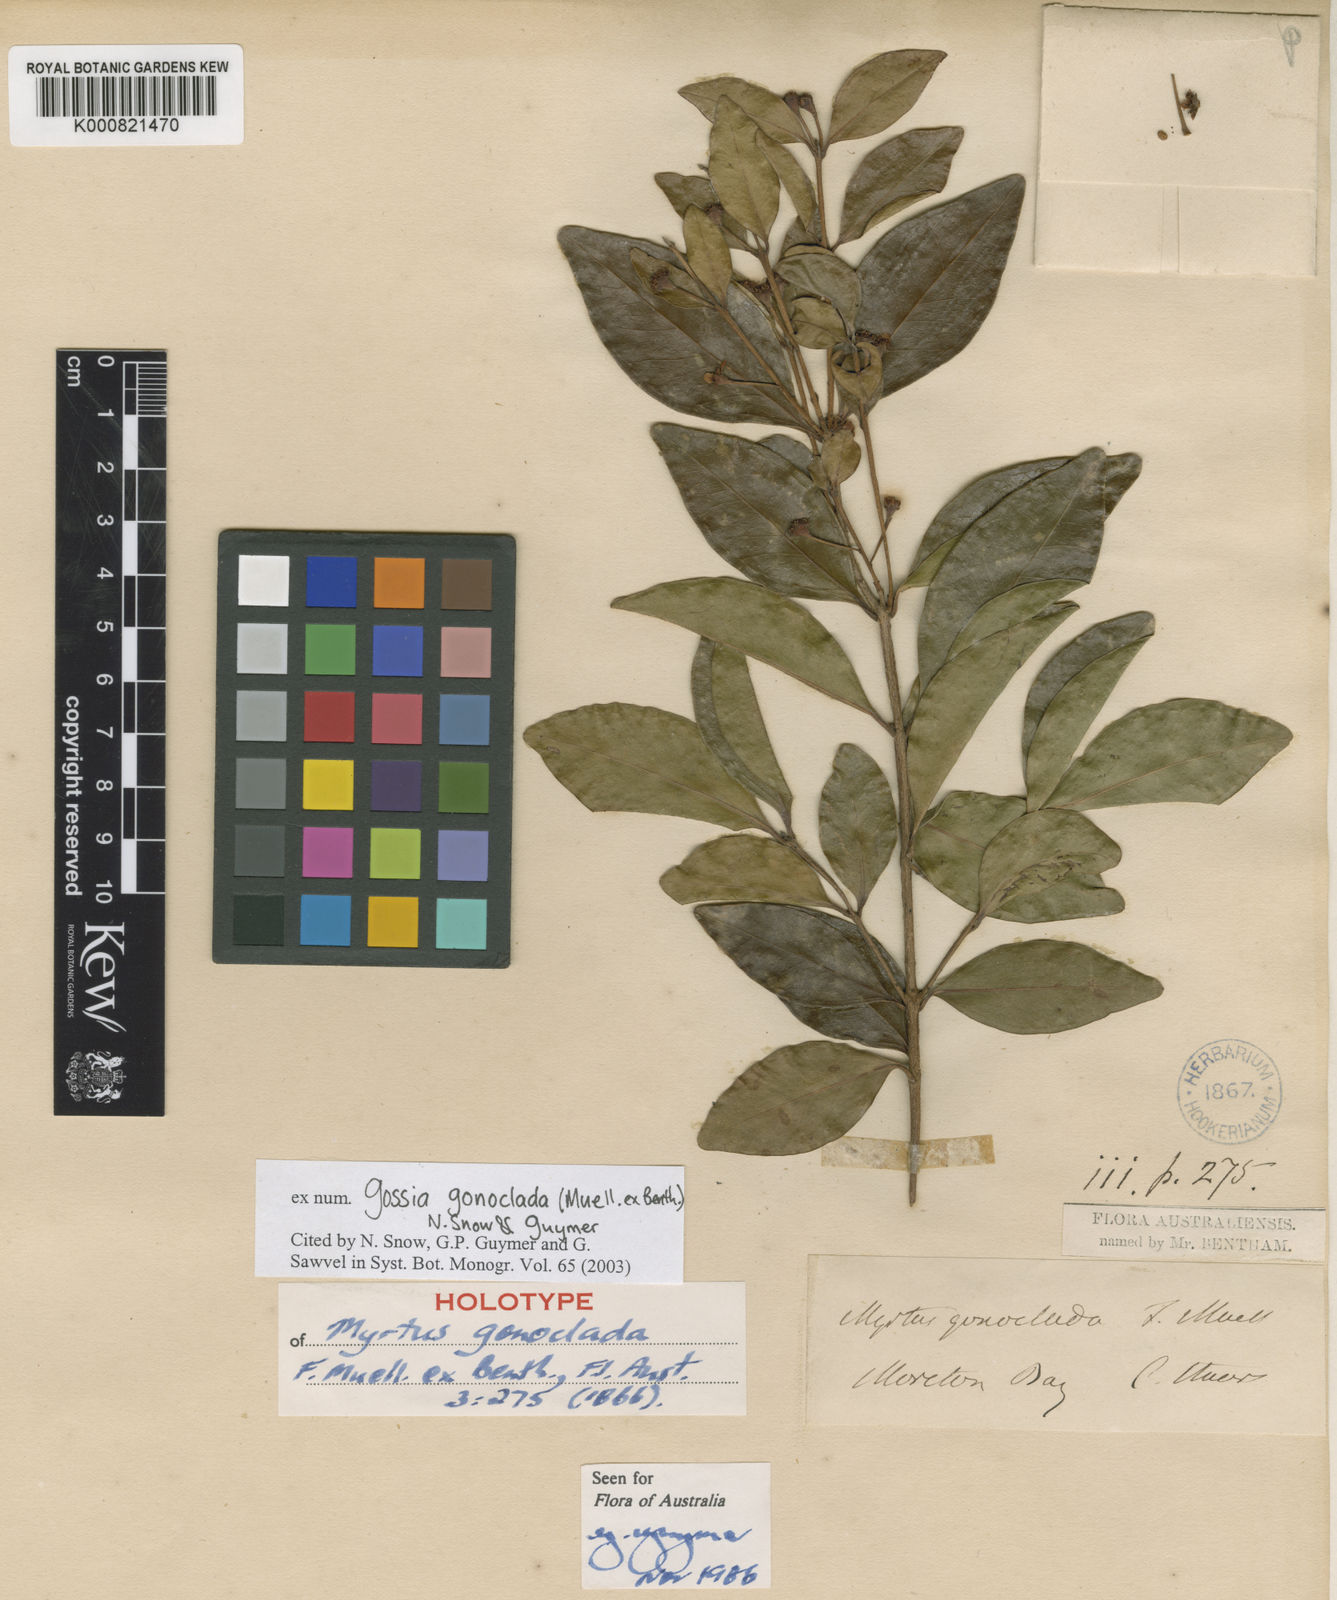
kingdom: Plantae
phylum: Tracheophyta
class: Magnoliopsida
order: Myrtales
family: Myrtaceae
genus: Gossia
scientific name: Gossia gonoclada
